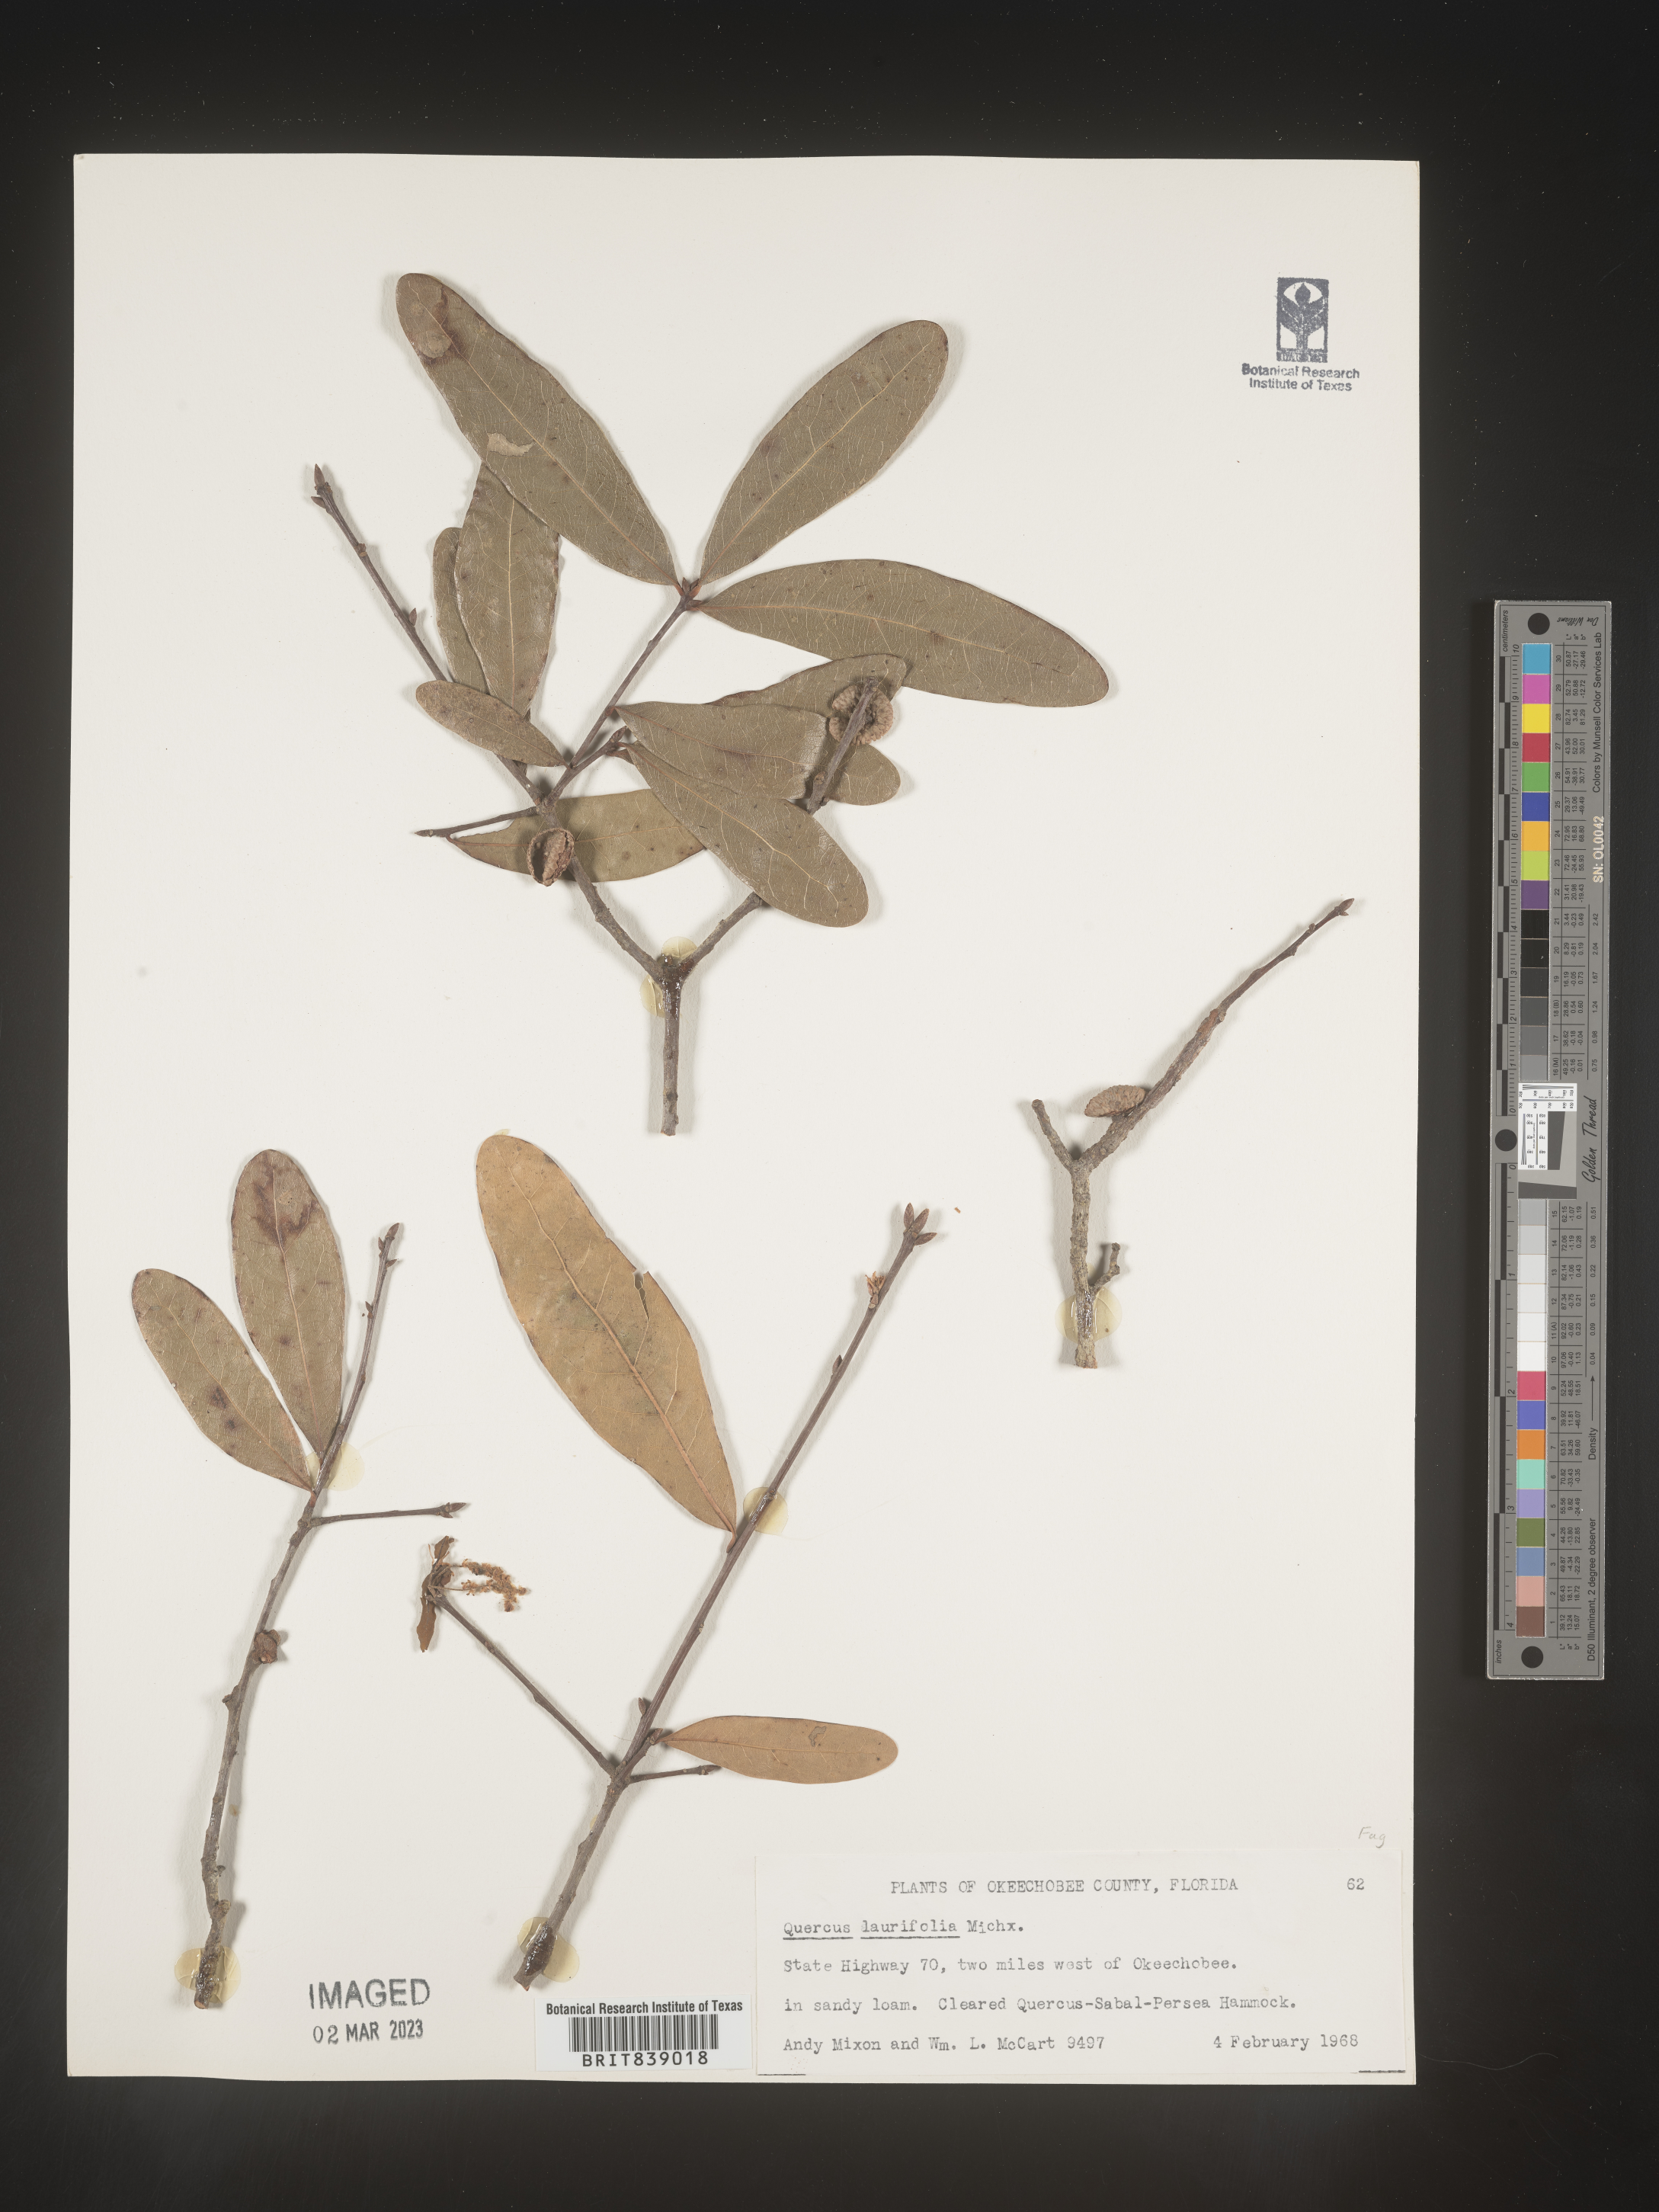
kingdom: Plantae
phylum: Tracheophyta
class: Magnoliopsida
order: Fagales
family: Fagaceae
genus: Quercus
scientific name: Quercus laurifolia
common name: Swamp laurel oak
